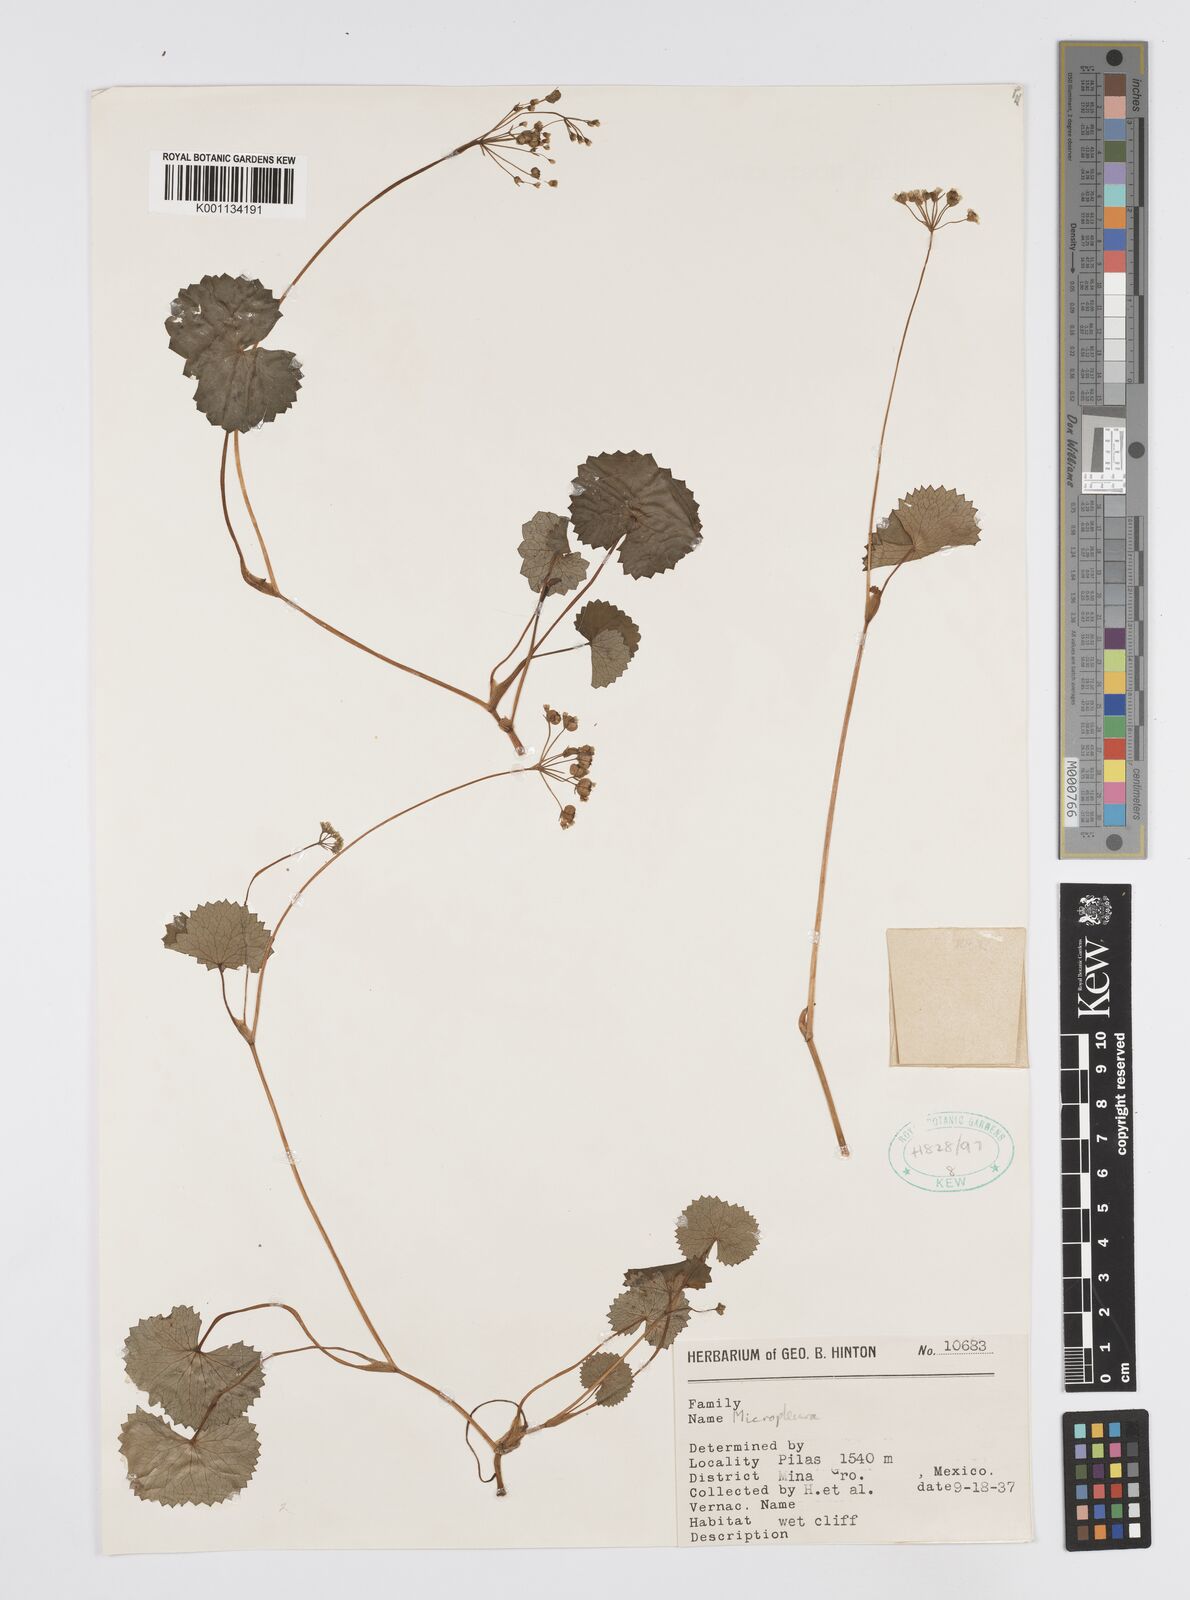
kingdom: Plantae
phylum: Tracheophyta
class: Magnoliopsida
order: Apiales
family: Apiaceae
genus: Centella
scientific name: Centella
